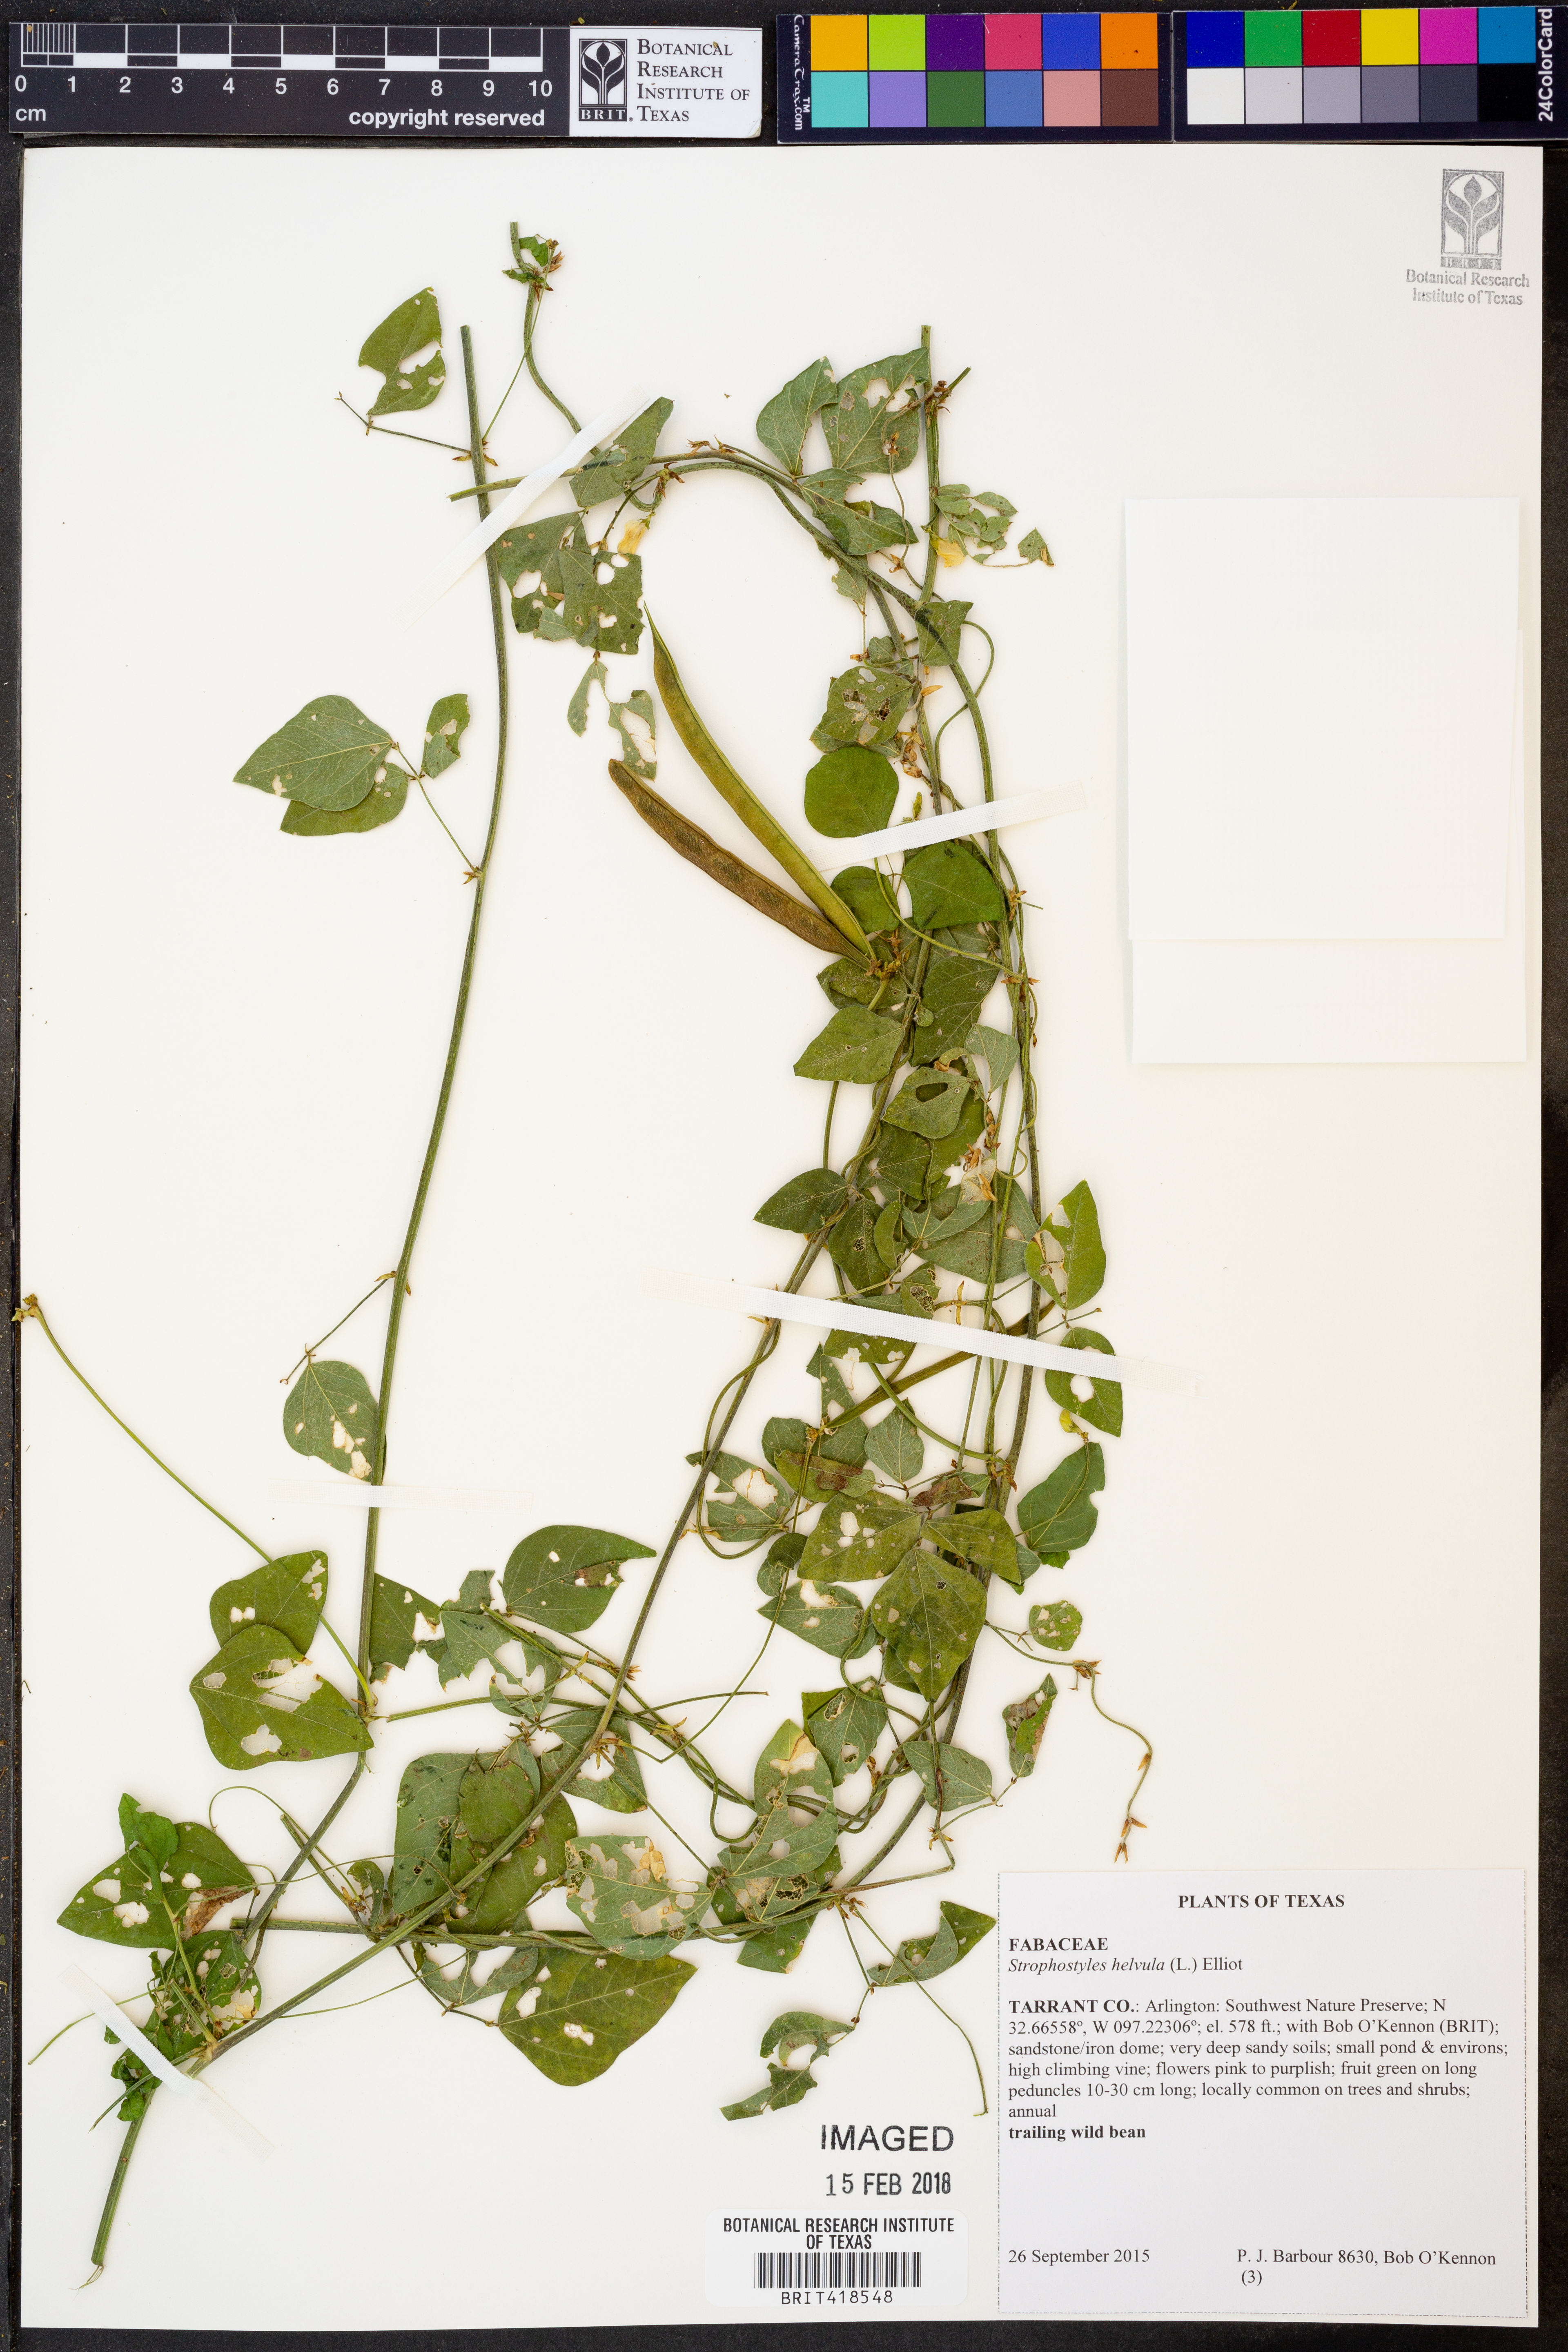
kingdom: Plantae
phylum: Tracheophyta
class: Magnoliopsida
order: Fabales
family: Fabaceae
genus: Strophostyles
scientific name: Strophostyles helvula
